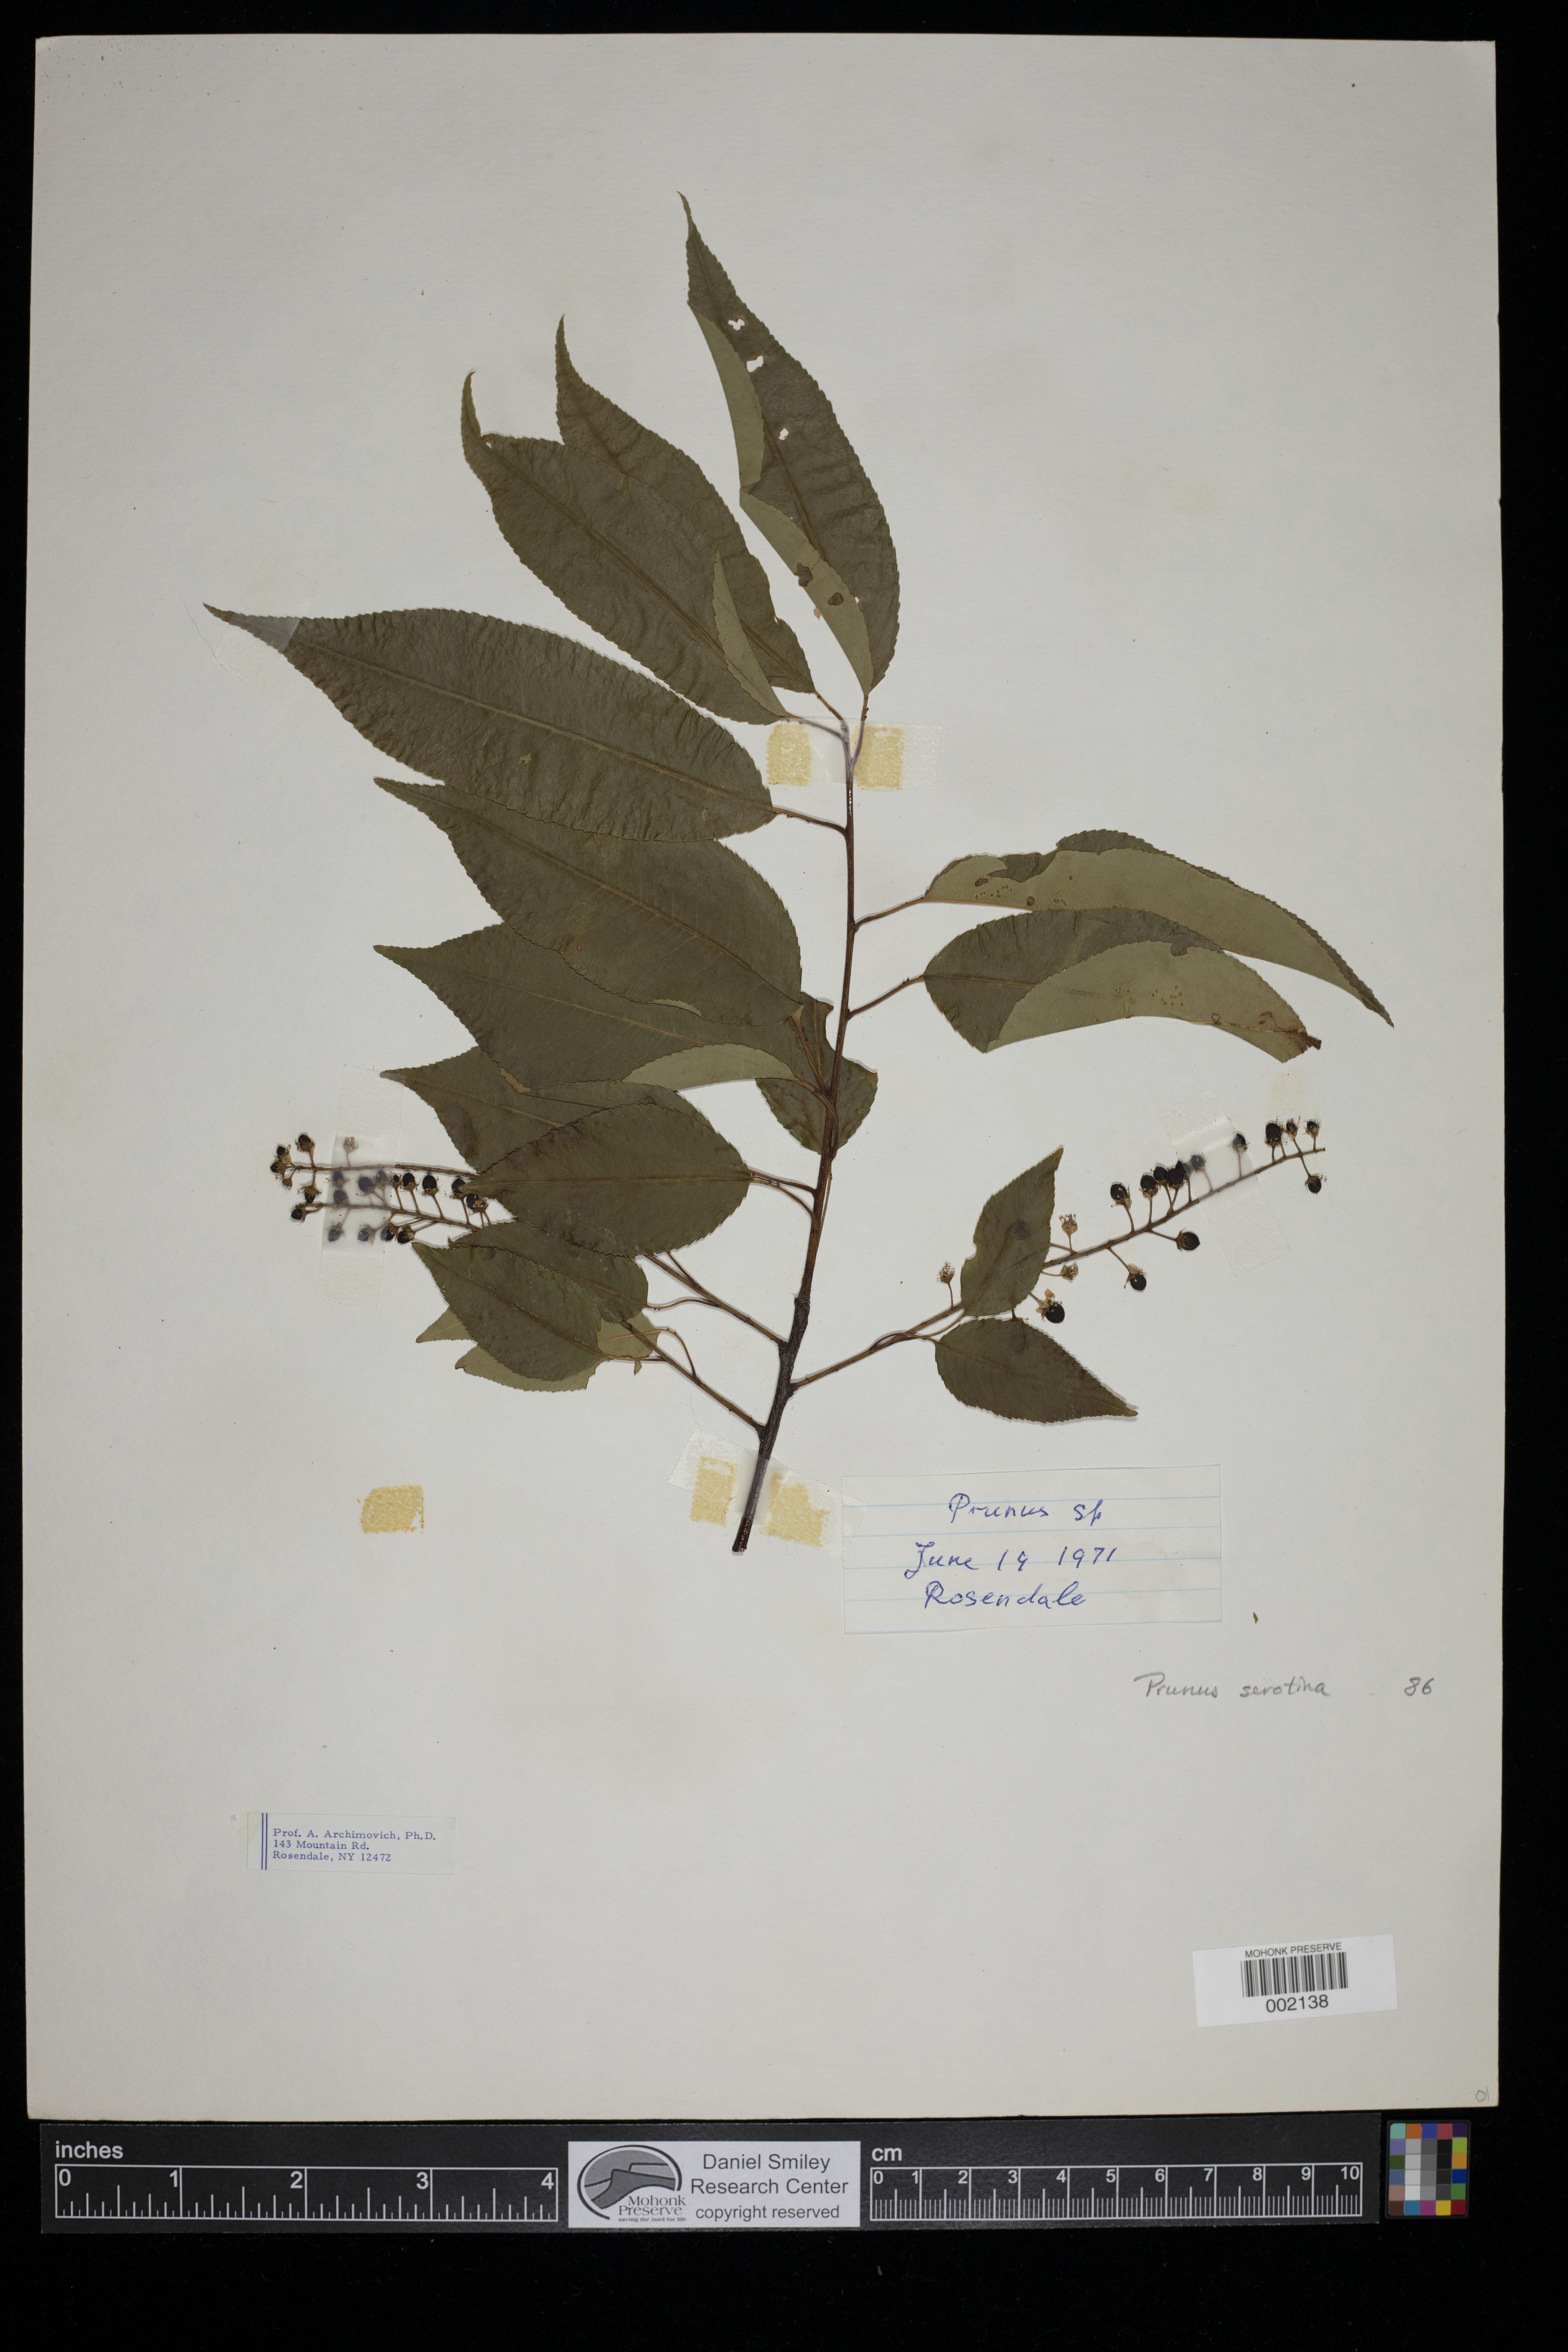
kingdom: Plantae
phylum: Tracheophyta
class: Magnoliopsida
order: Rosales
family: Rosaceae
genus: Prunus
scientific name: Prunus serotina
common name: Black cherry
